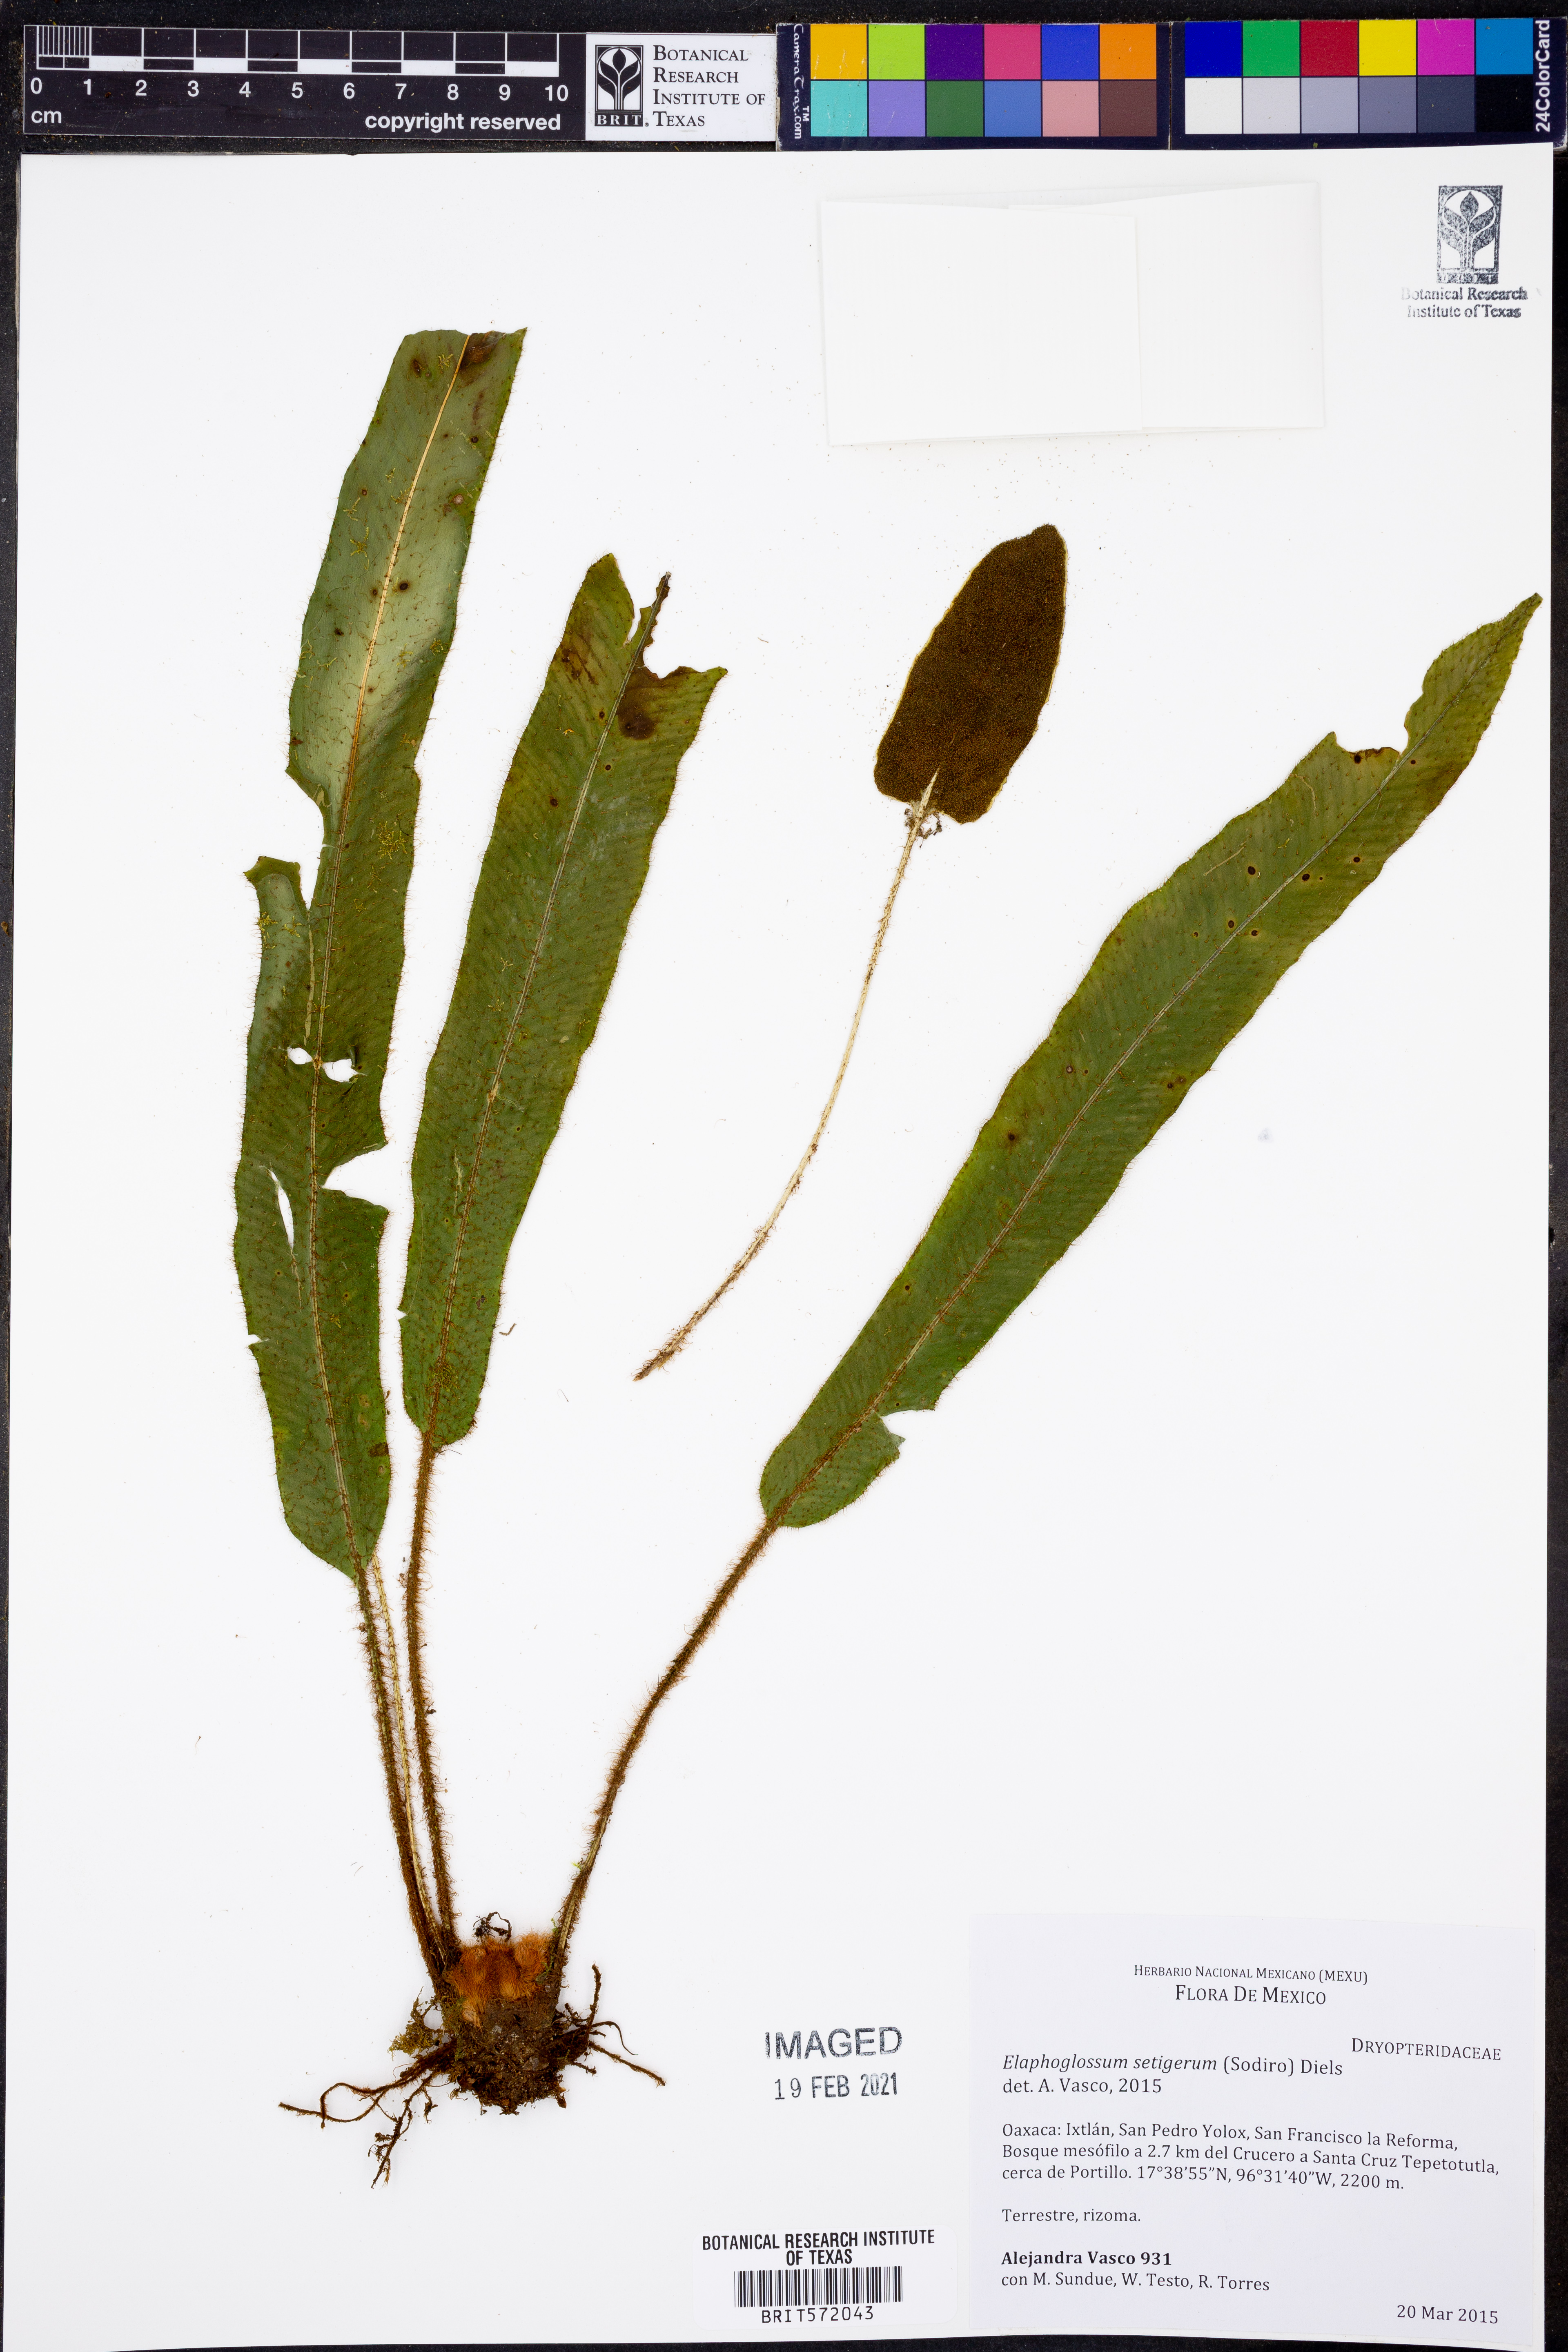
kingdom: Plantae
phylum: Tracheophyta
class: Polypodiopsida
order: Polypodiales
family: Dryopteridaceae
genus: Elaphoglossum
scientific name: Elaphoglossum setigerum
